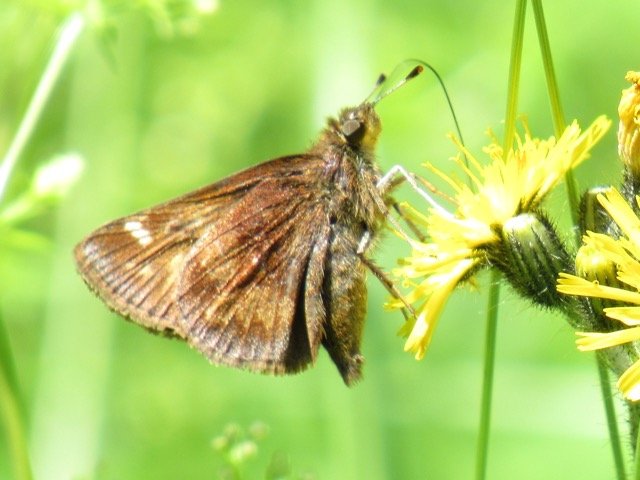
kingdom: Animalia
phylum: Arthropoda
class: Insecta
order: Lepidoptera
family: Hesperiidae
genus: Lon
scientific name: Lon hobomok
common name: Hobomok Skipper
